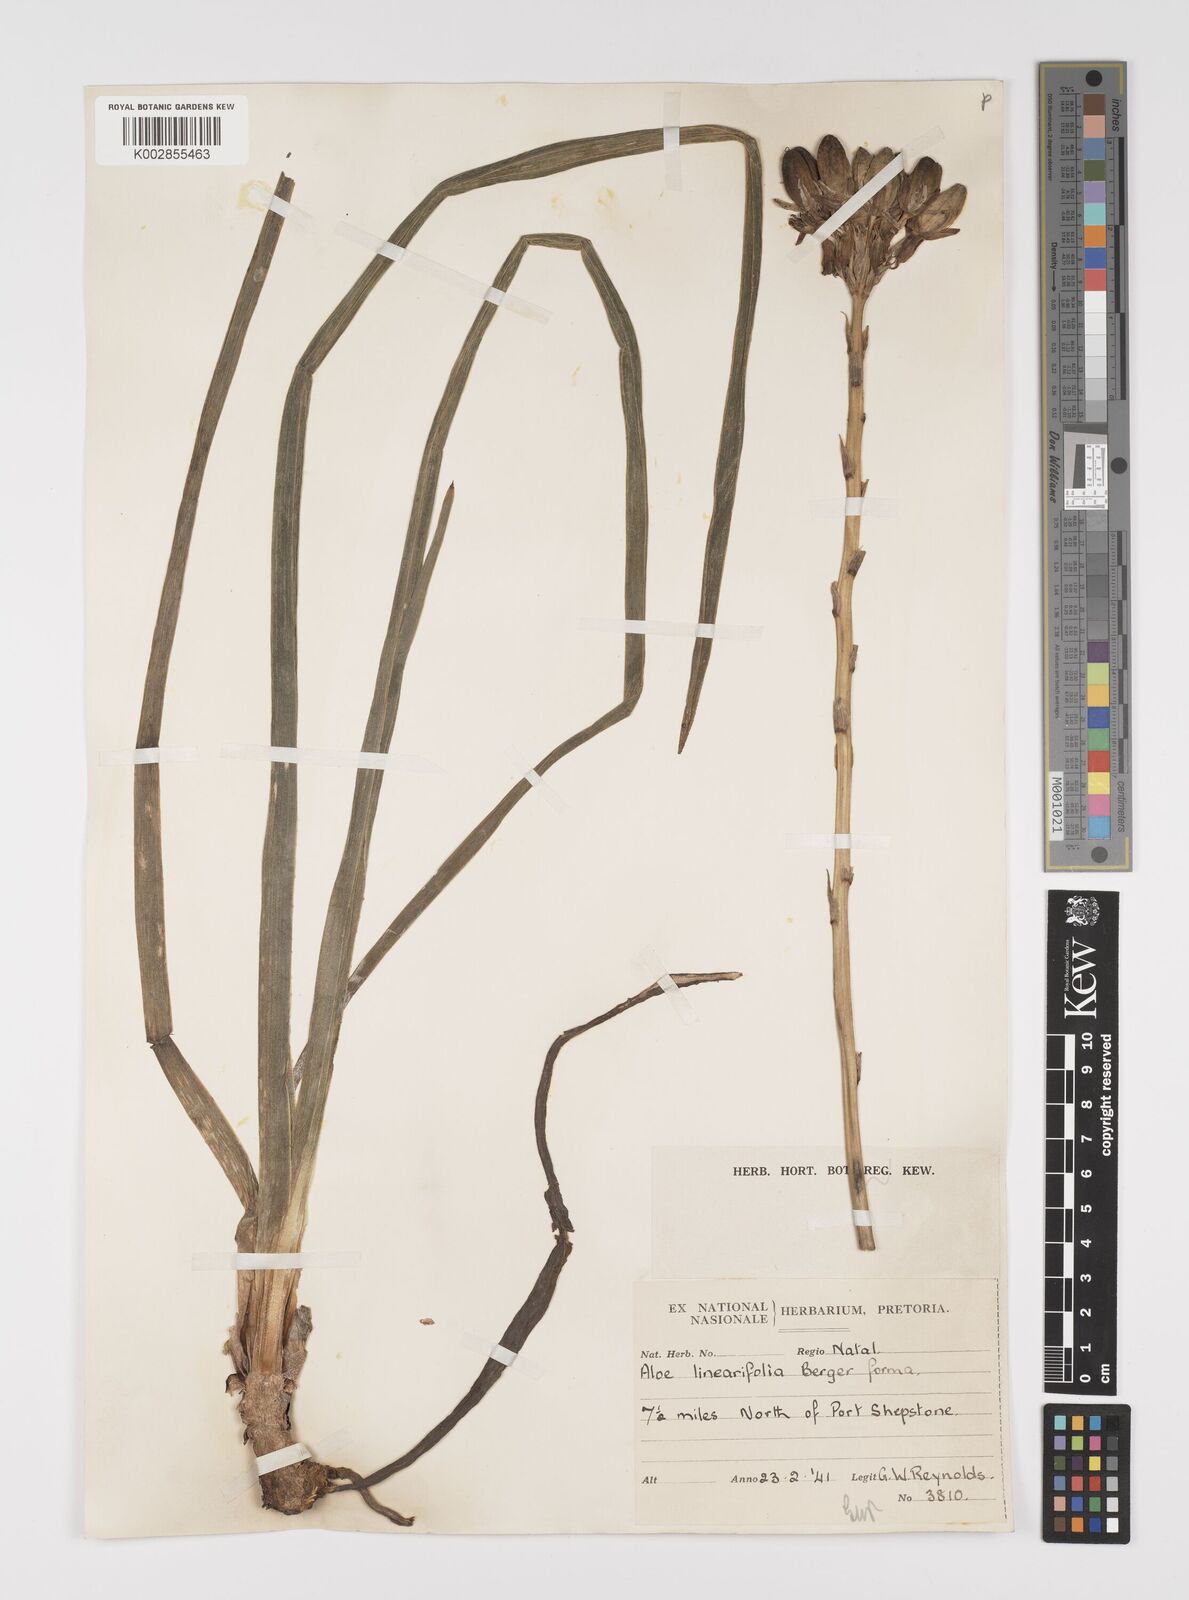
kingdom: Plantae
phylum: Tracheophyta
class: Liliopsida
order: Asparagales
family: Asphodelaceae
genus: Aloe
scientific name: Aloe linearifolia
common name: Dwarf yellow grass aloe
